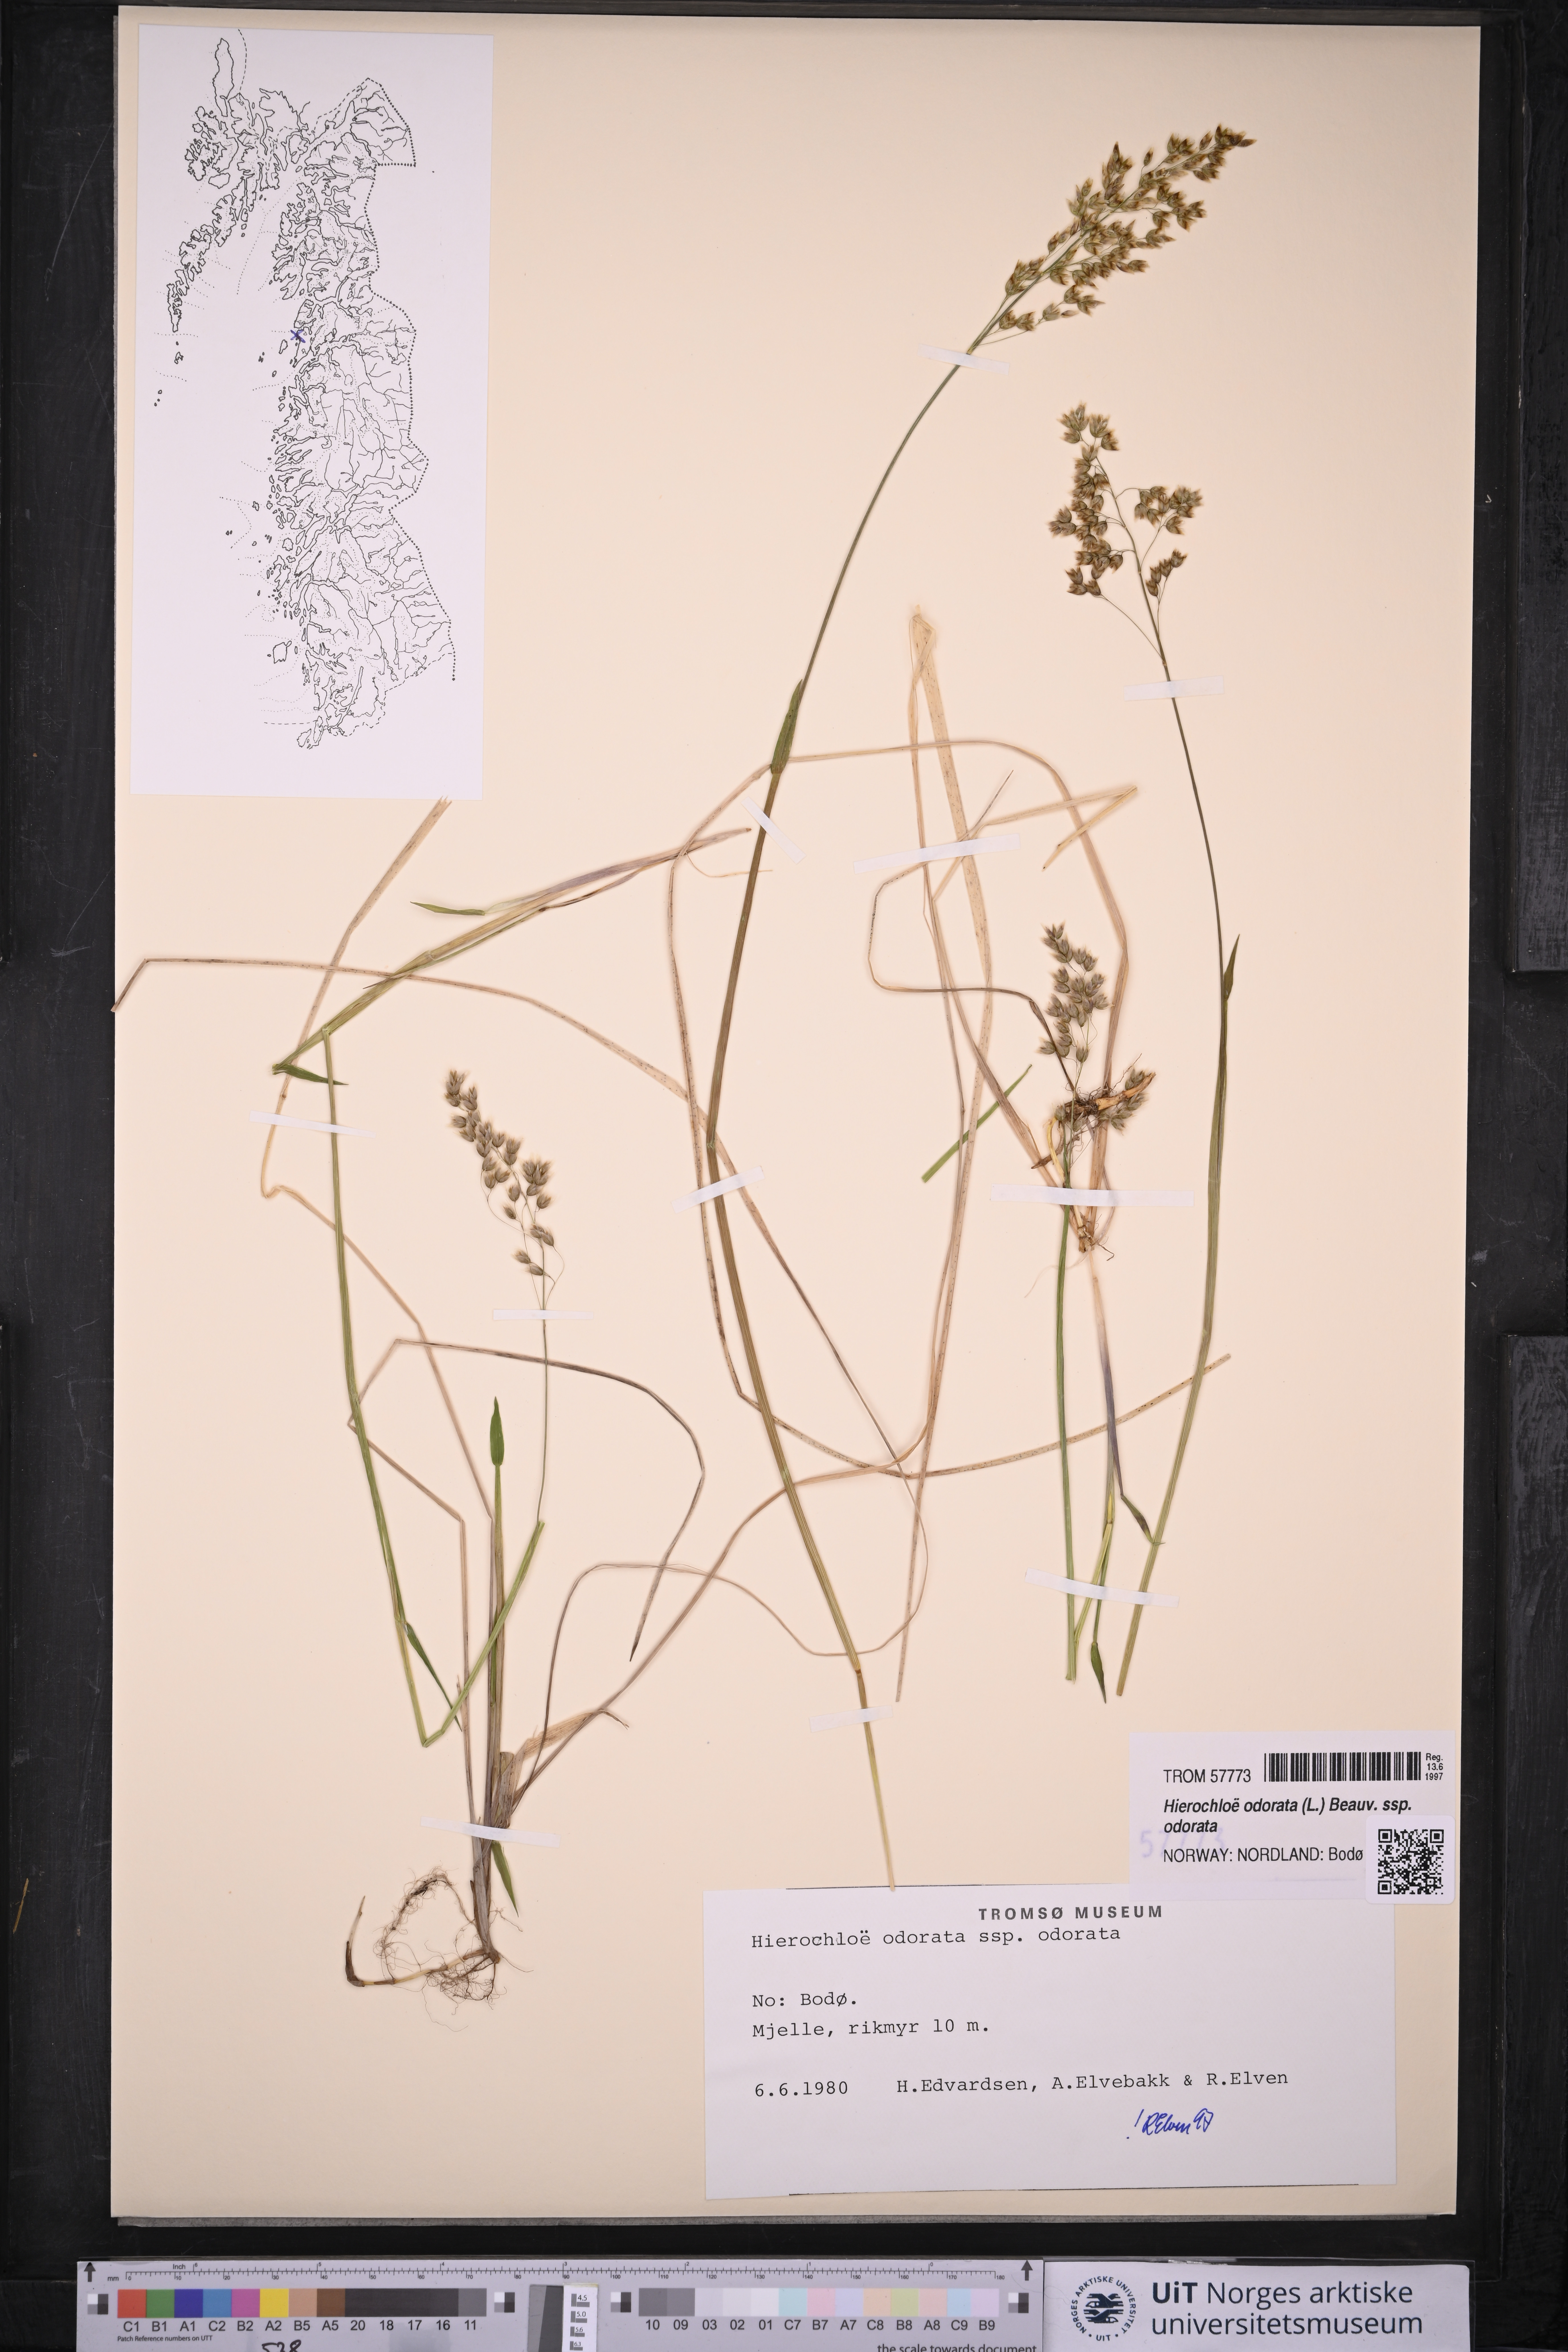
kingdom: Plantae
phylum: Tracheophyta
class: Liliopsida
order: Poales
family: Poaceae
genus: Anthoxanthum
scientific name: Anthoxanthum nitens
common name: Holy grass
